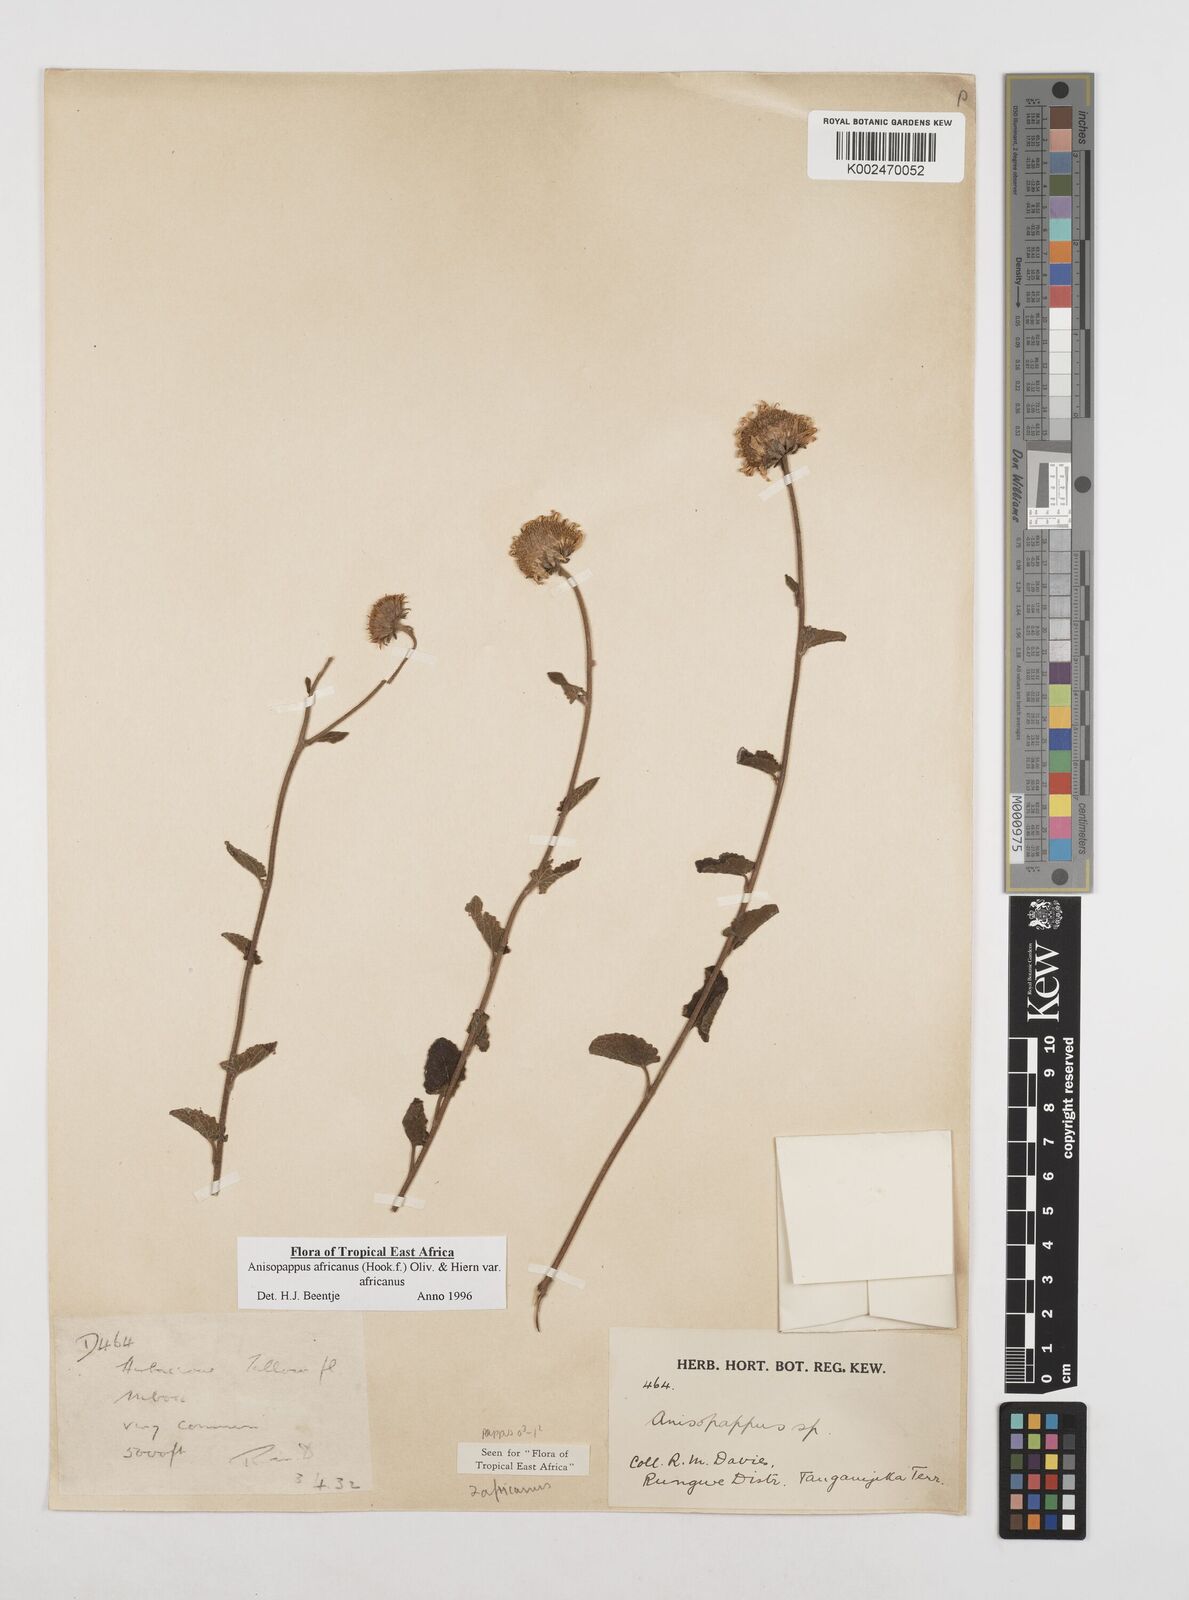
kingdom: Plantae
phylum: Tracheophyta
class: Magnoliopsida
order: Asterales
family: Asteraceae
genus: Anisopappus
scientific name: Anisopappus buchwaldii
